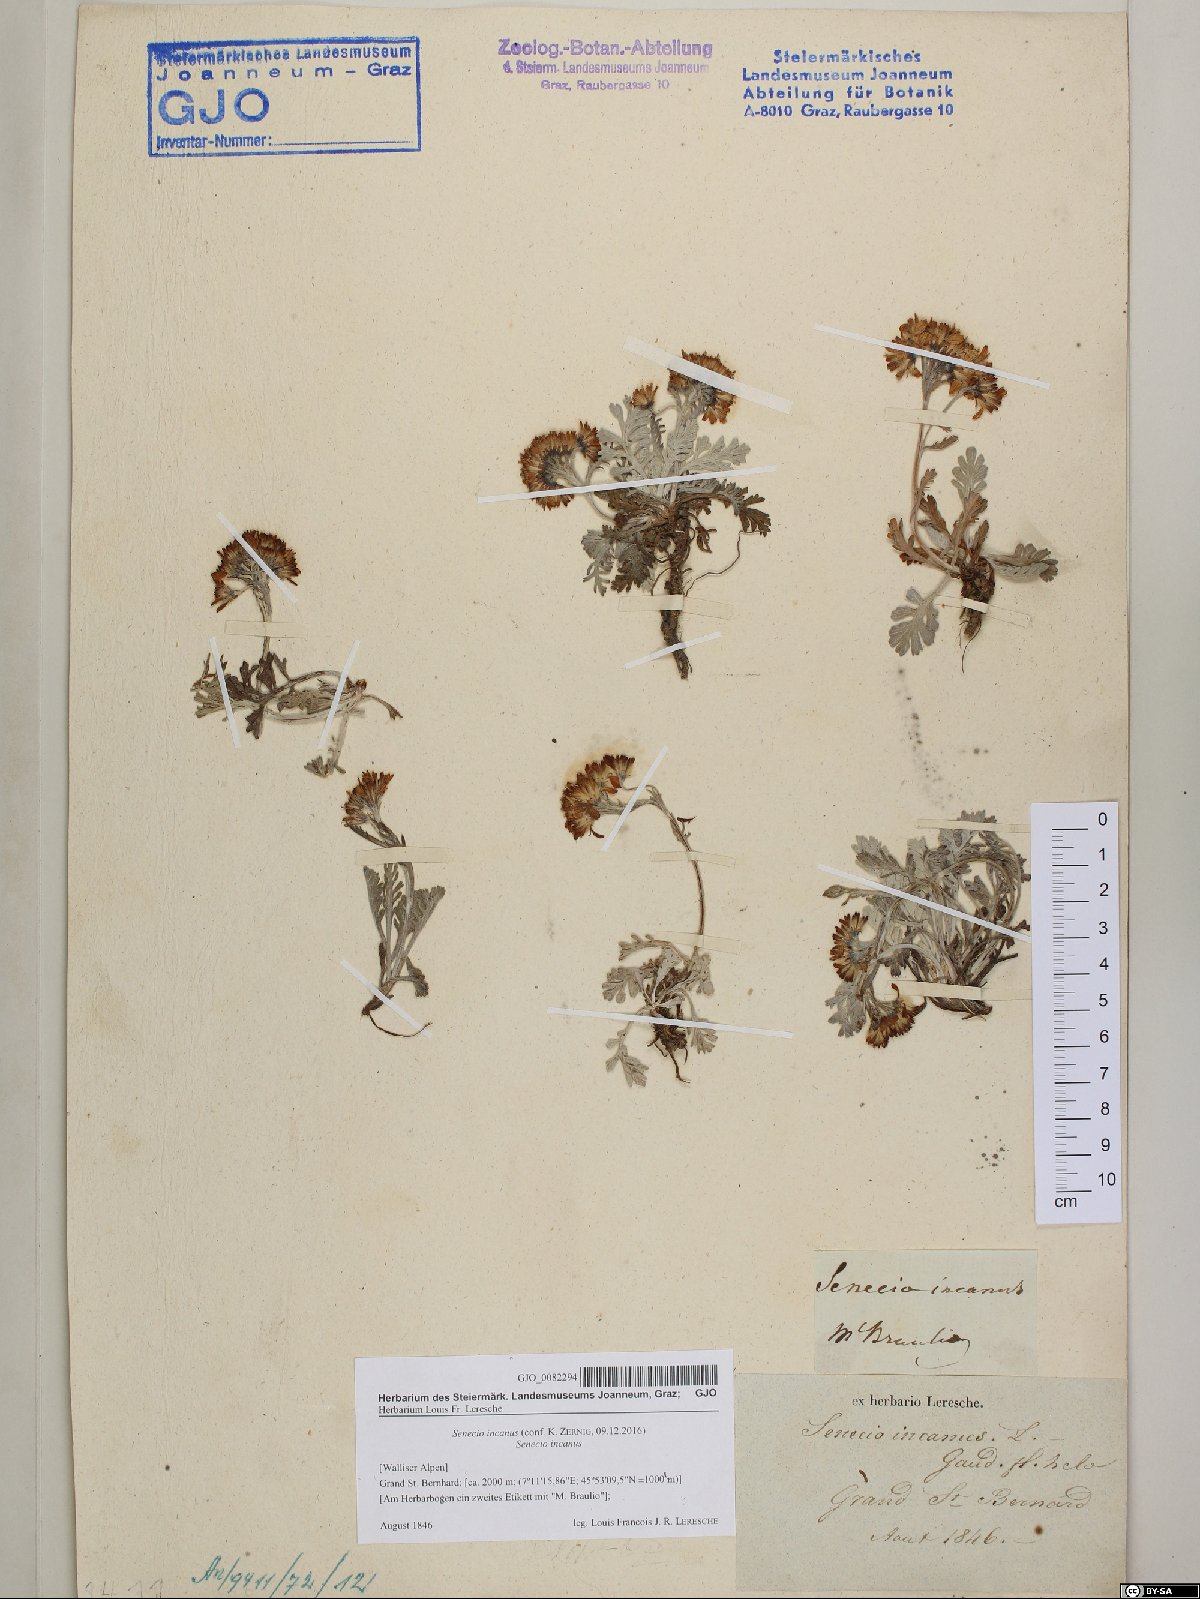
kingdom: Plantae
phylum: Tracheophyta
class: Magnoliopsida
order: Asterales
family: Asteraceae
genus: Jacobaea
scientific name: Jacobaea incana
